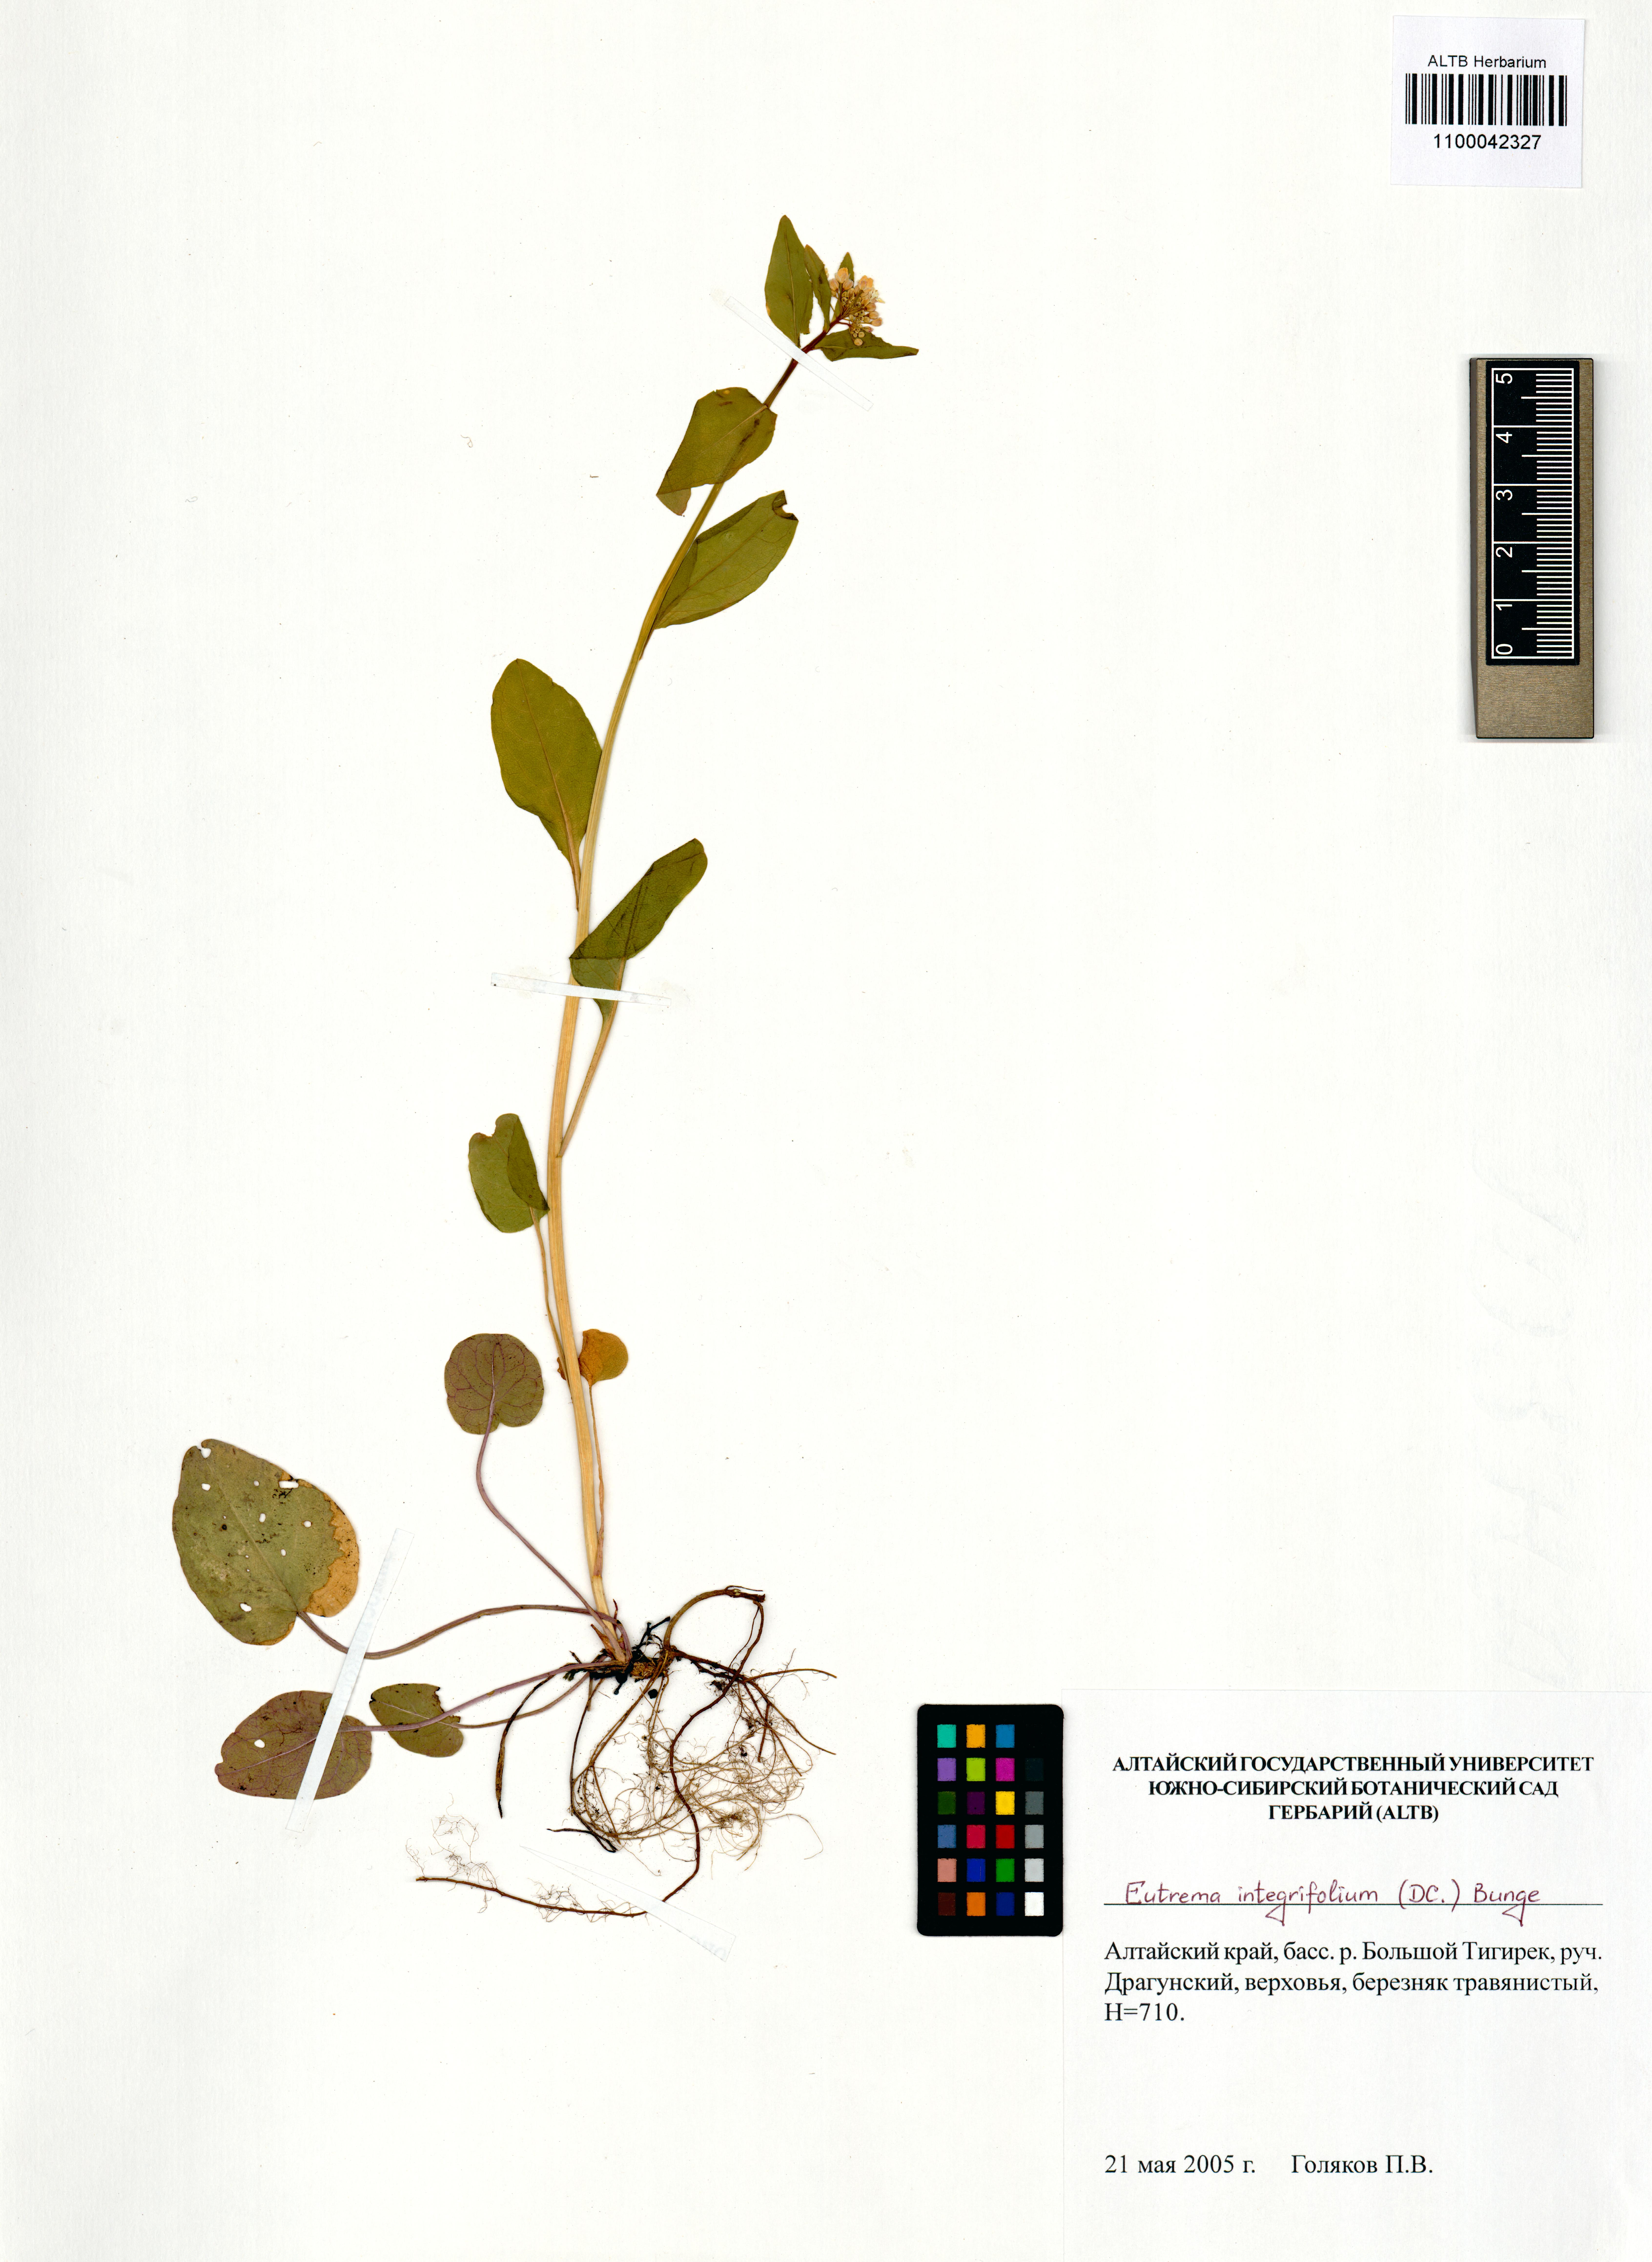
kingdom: Plantae
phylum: Tracheophyta
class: Magnoliopsida
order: Brassicales
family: Brassicaceae
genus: Eutrema
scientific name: Eutrema integrifolium
